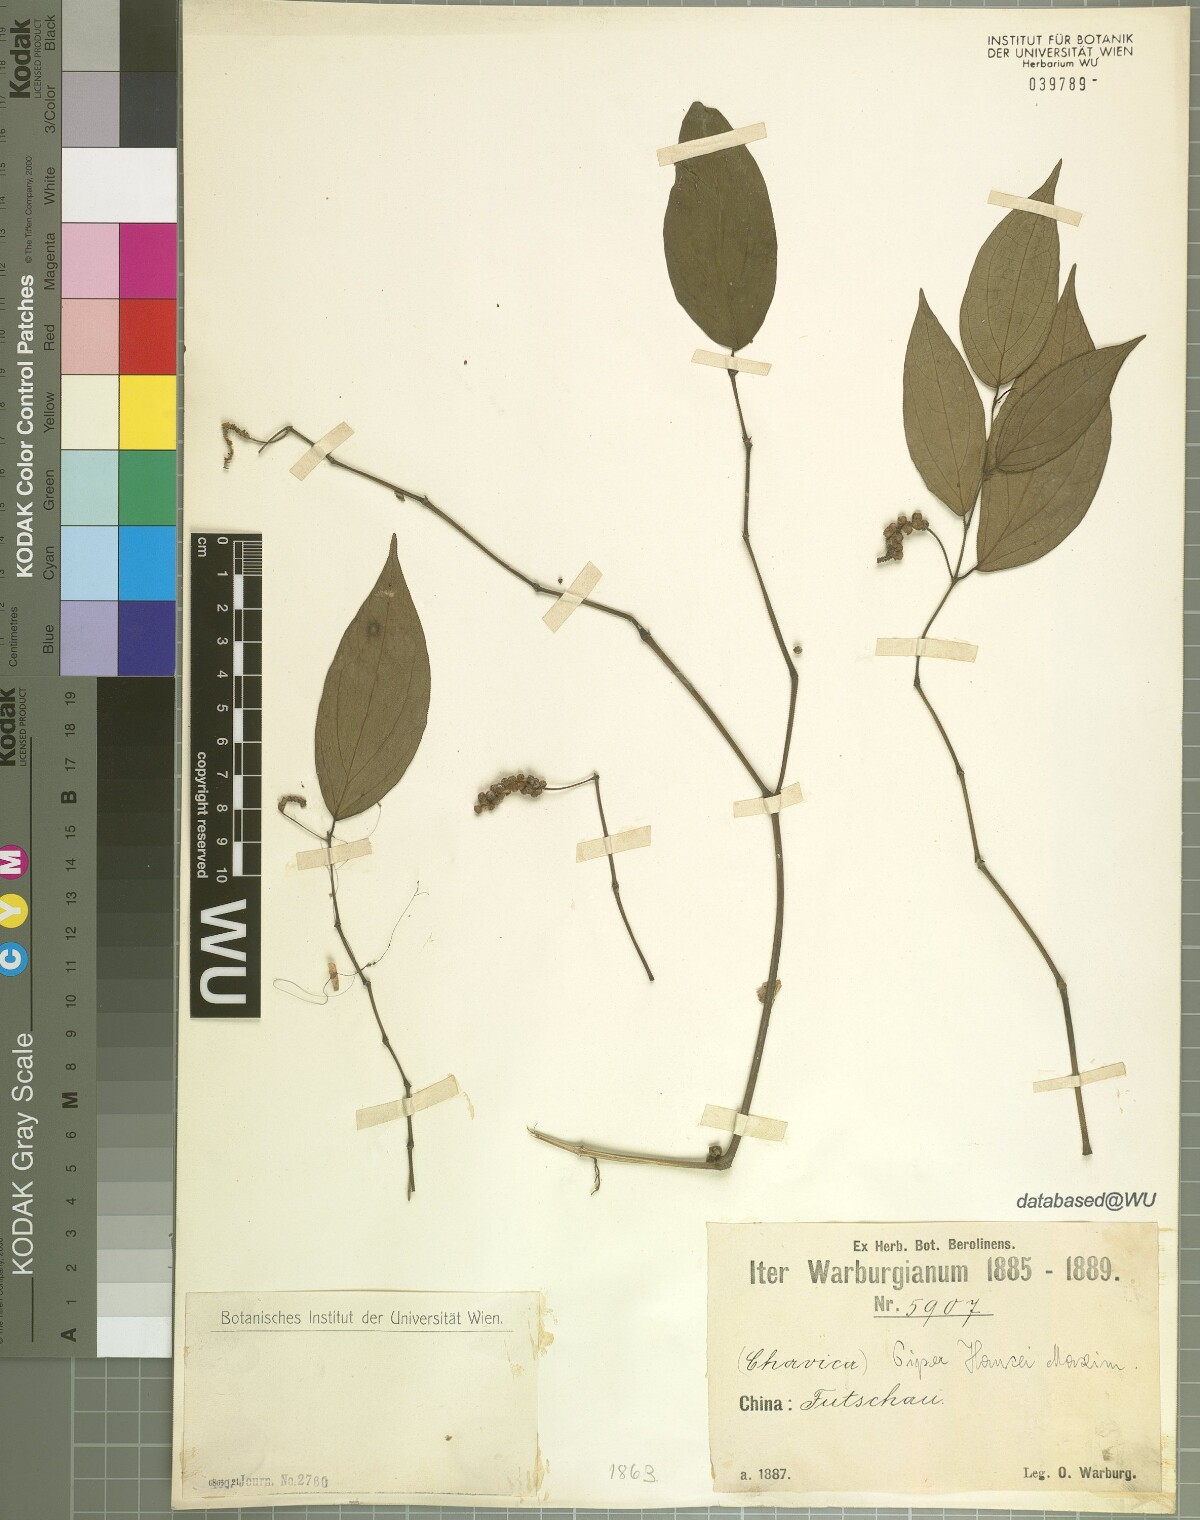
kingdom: Plantae
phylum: Tracheophyta
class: Magnoliopsida
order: Piperales
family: Piperaceae
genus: Piper
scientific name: Piper hancei
